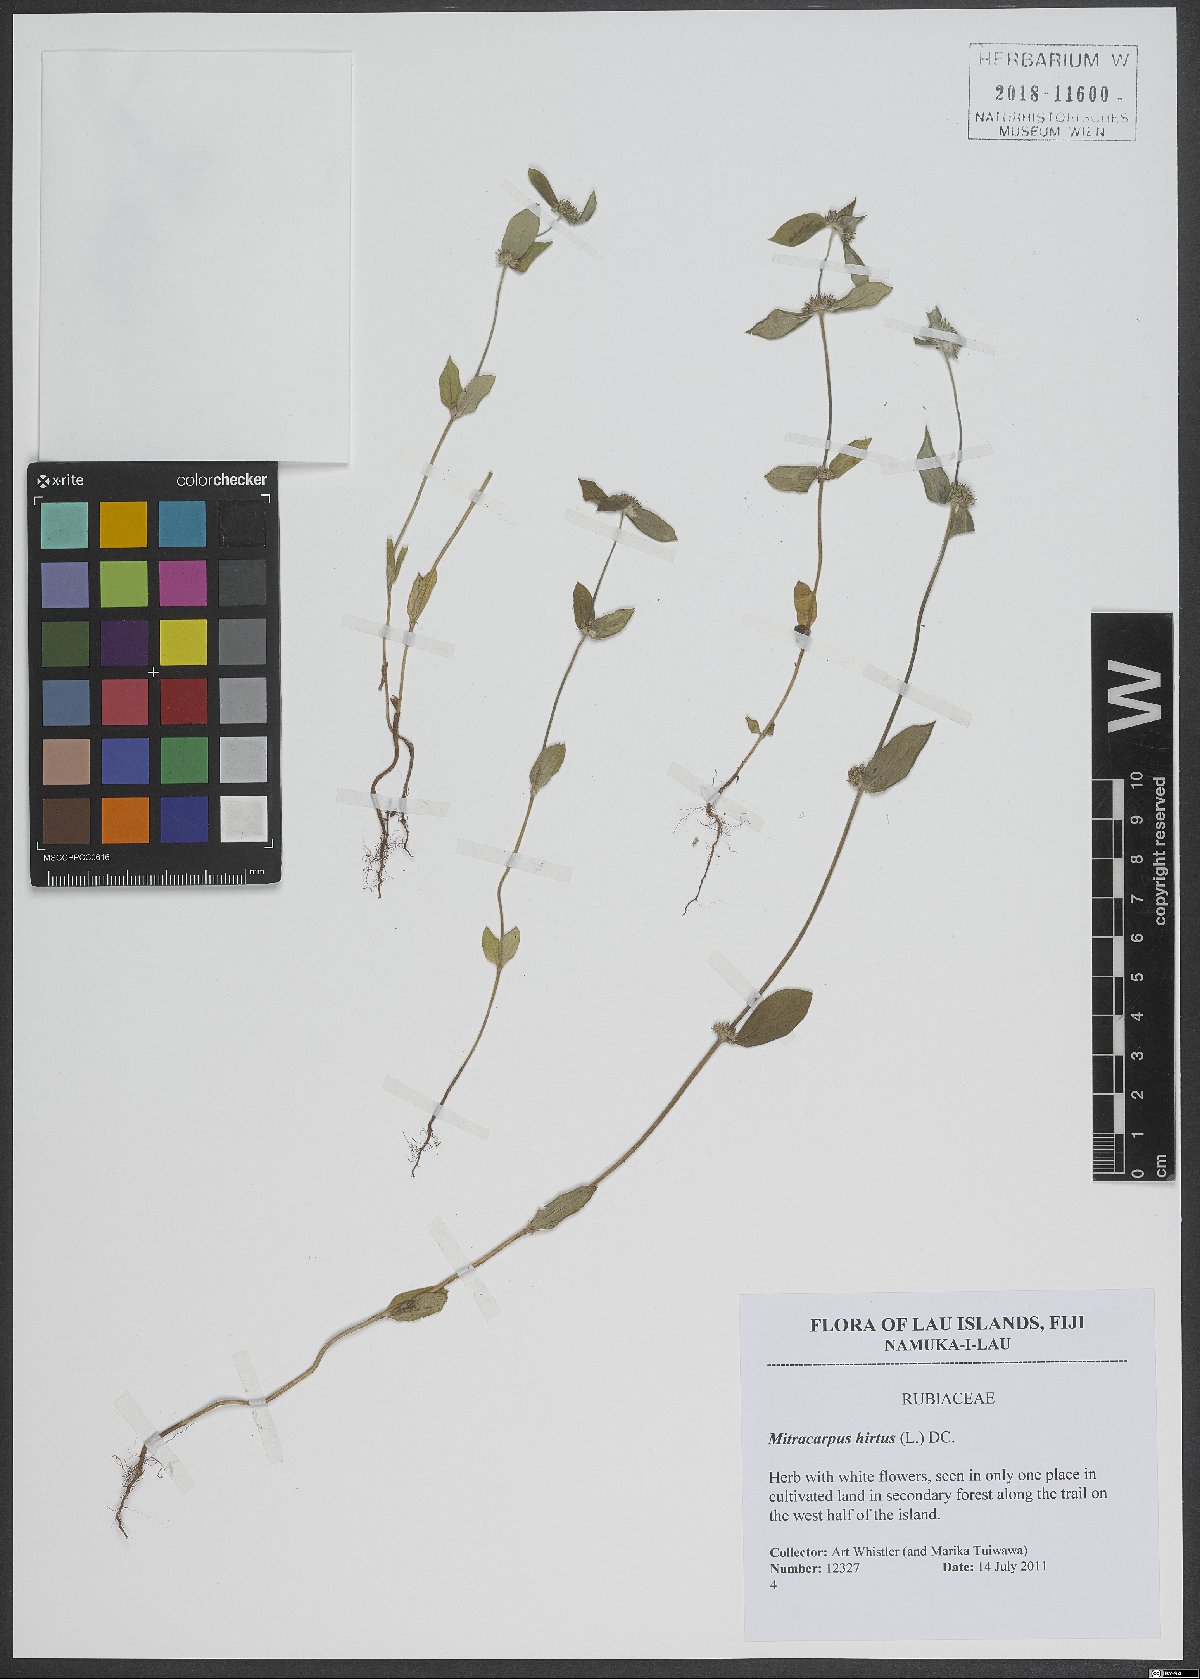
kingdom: Plantae
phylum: Tracheophyta
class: Magnoliopsida
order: Gentianales
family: Rubiaceae
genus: Mitracarpus
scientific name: Mitracarpus hirtus
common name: Tropical girdlepod
